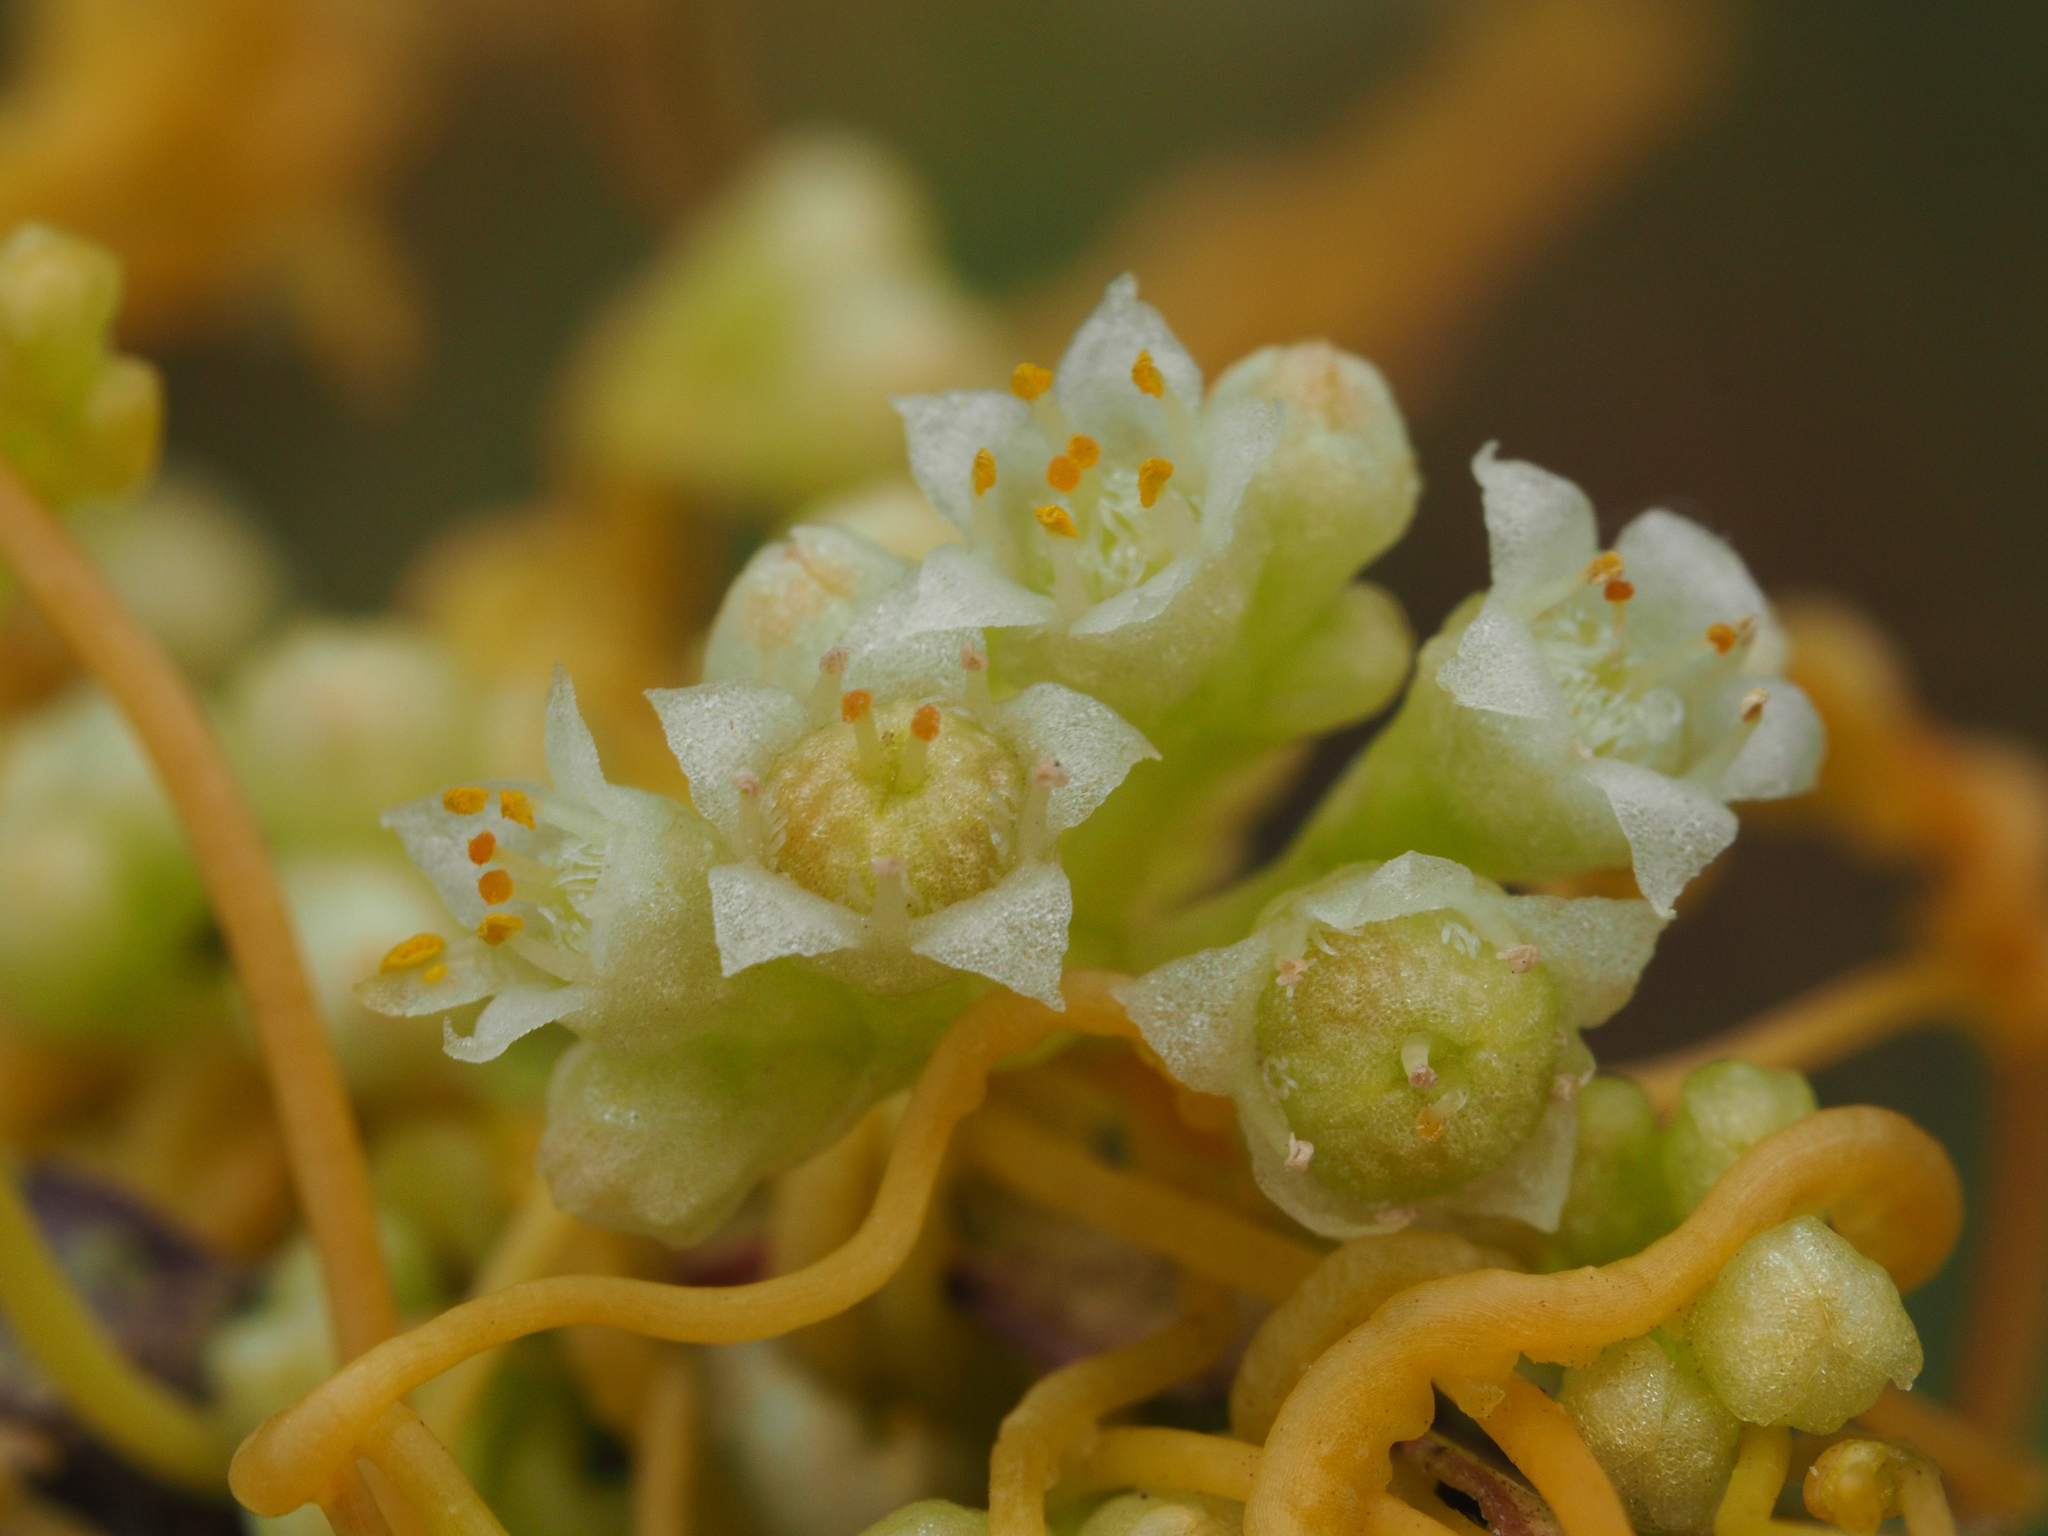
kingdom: Plantae
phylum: Tracheophyta
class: Magnoliopsida
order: Solanales
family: Convolvulaceae
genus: Cuscuta
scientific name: Cuscuta campestris
